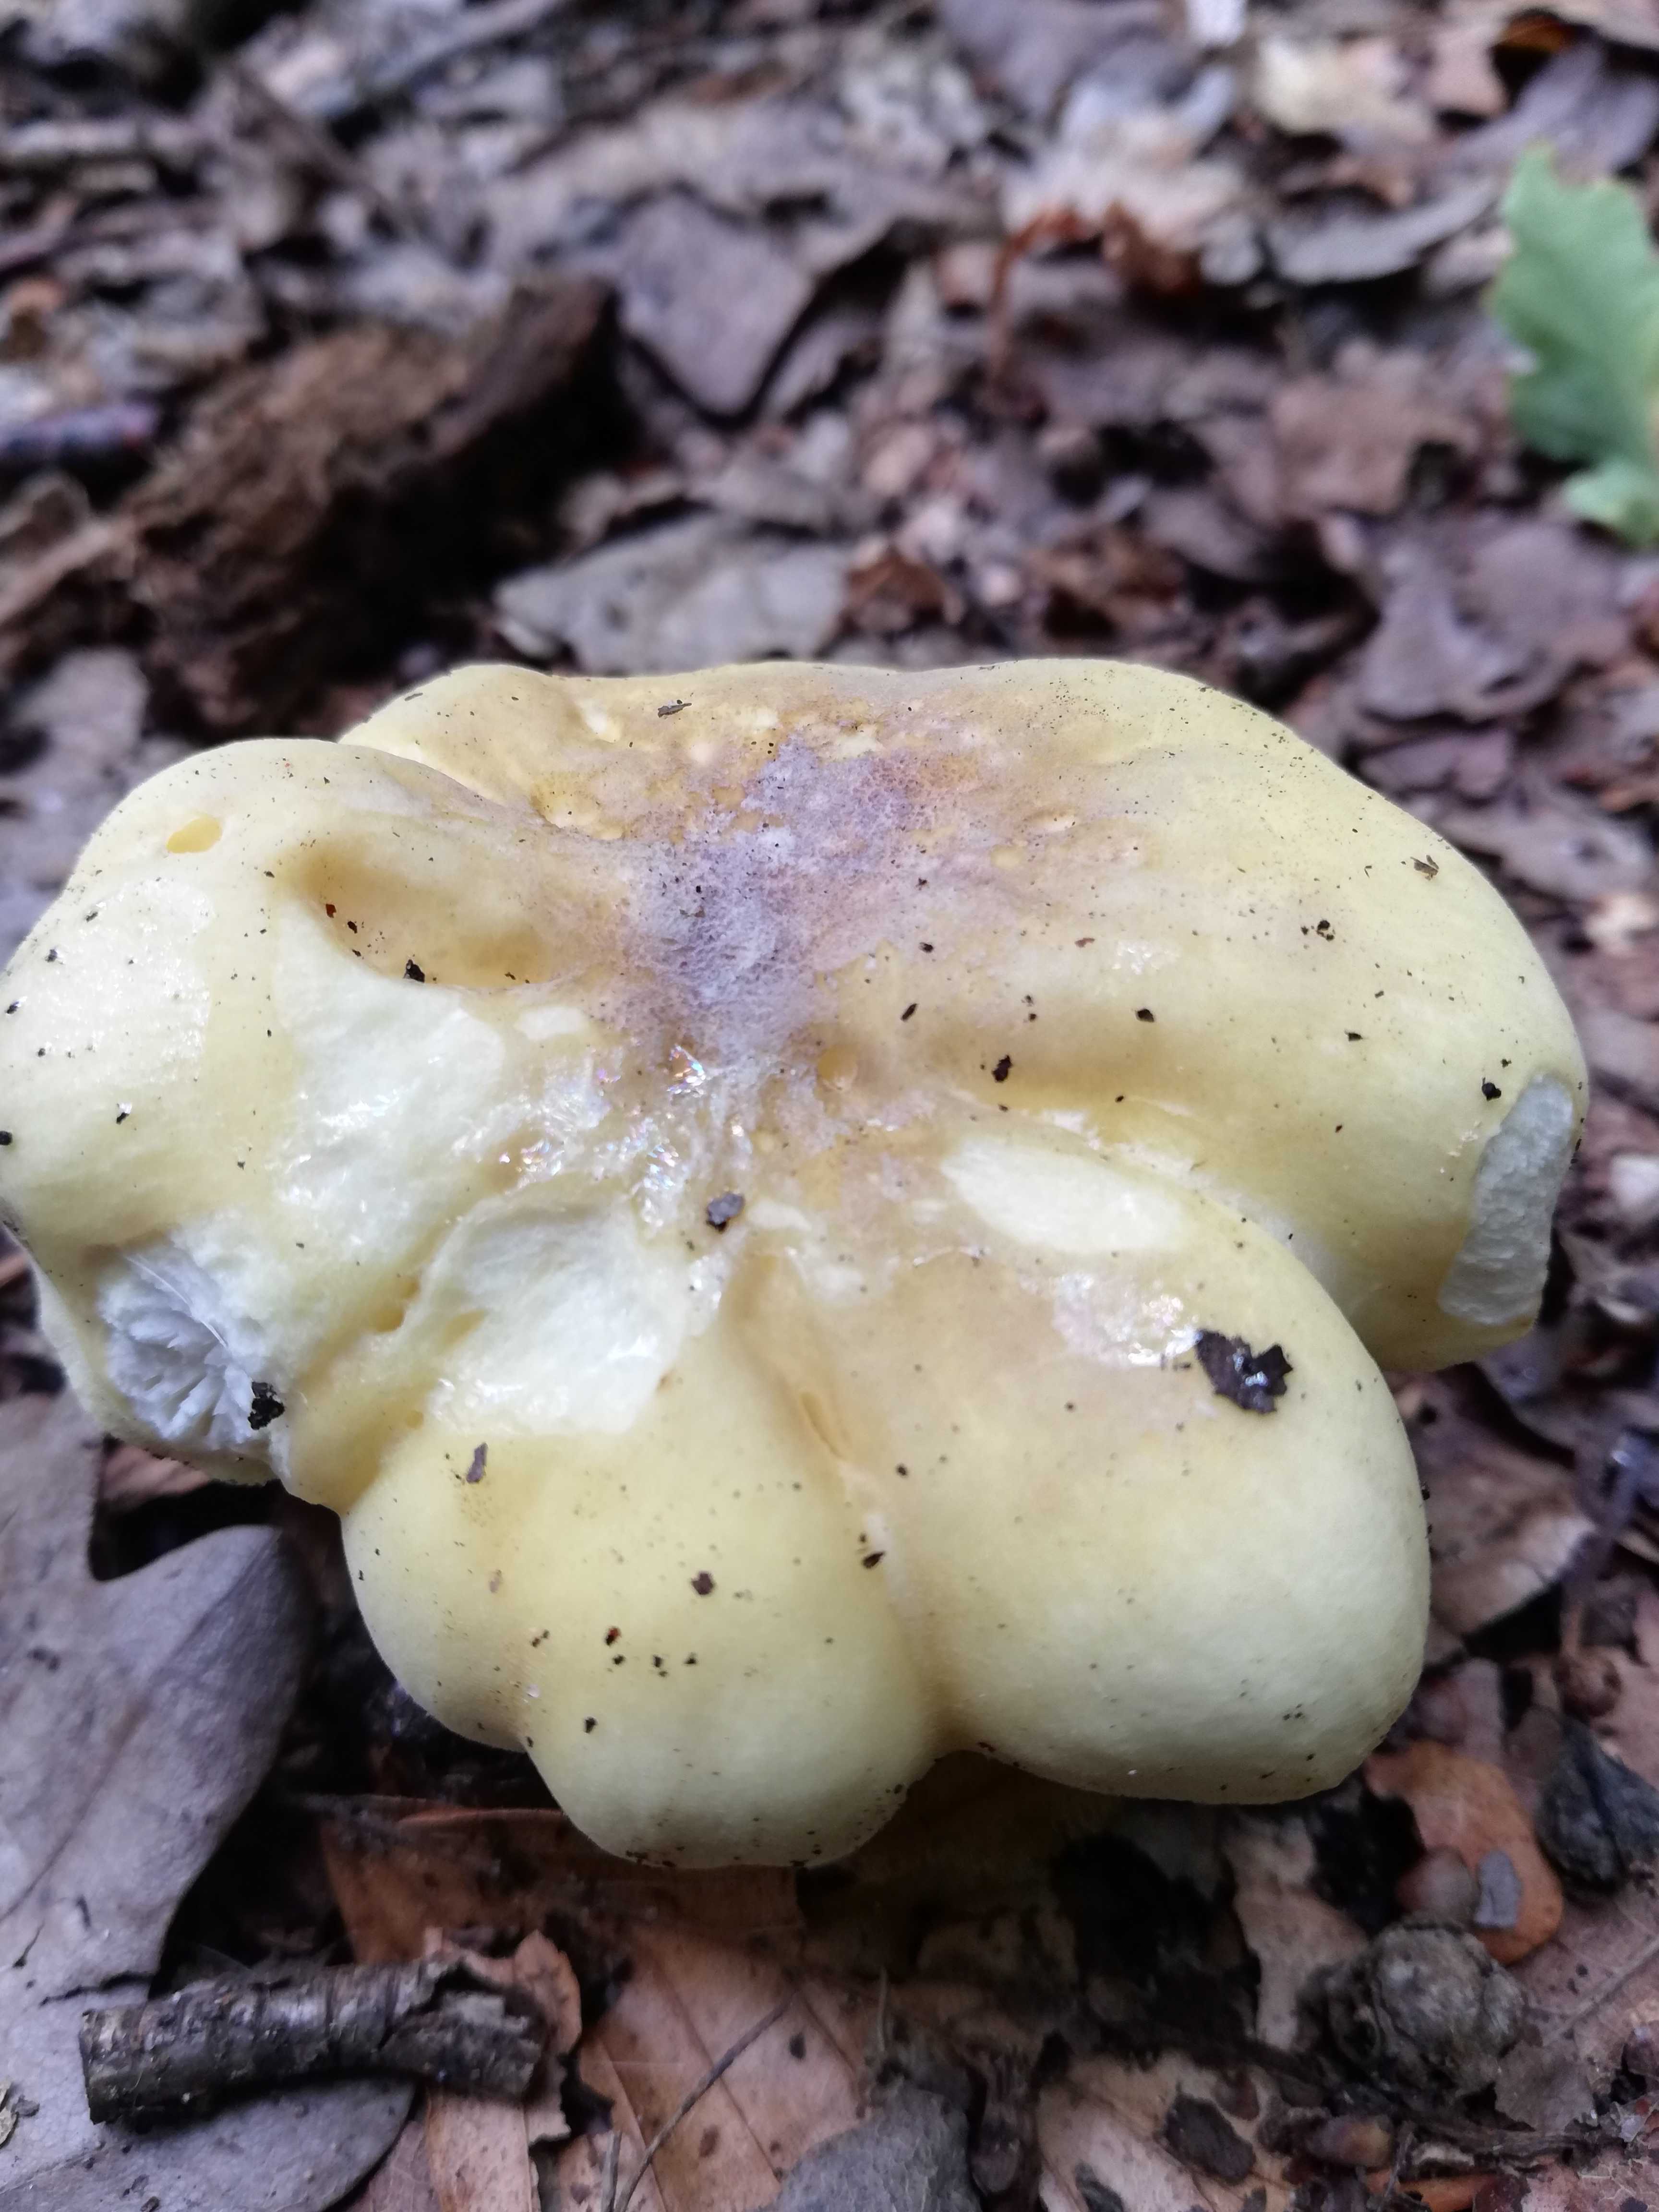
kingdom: Fungi
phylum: Basidiomycota
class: Agaricomycetes
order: Russulales
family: Russulaceae
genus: Russula
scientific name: Russula violeipes
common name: ferskengul skørhat
